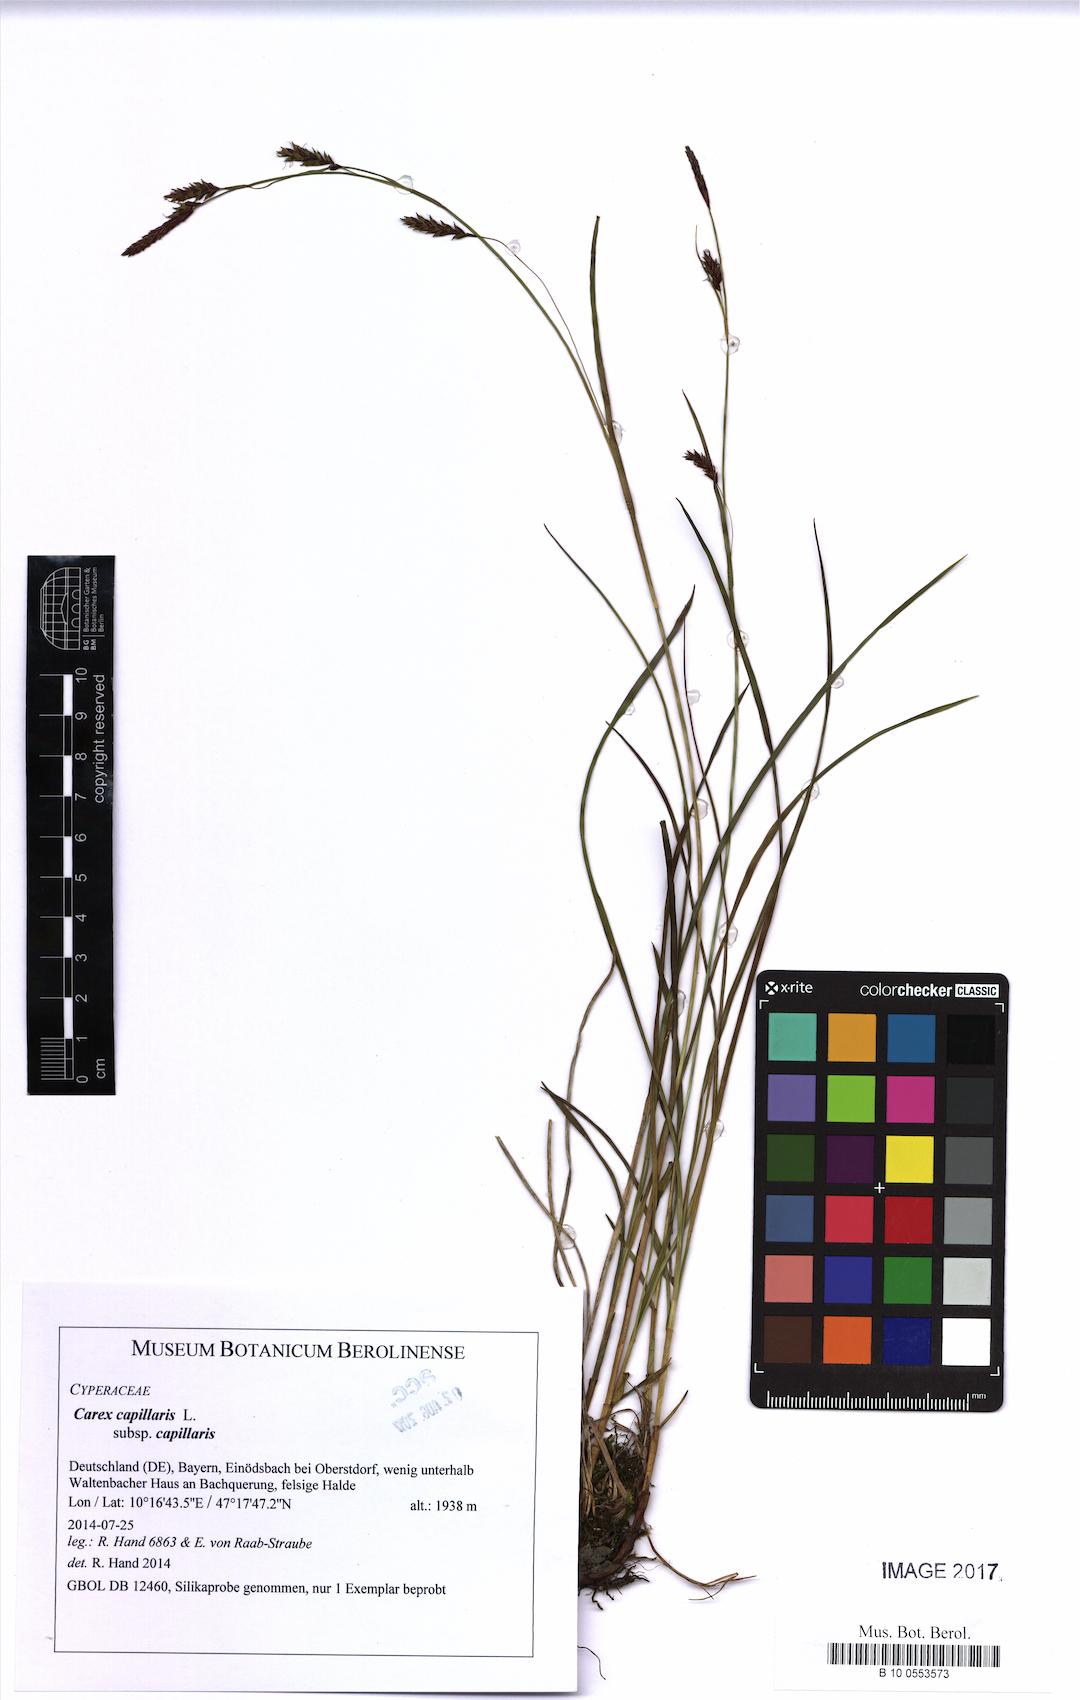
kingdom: Plantae
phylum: Tracheophyta
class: Liliopsida
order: Poales
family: Cyperaceae
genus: Carex
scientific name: Carex capillaris
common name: Hair sedge
